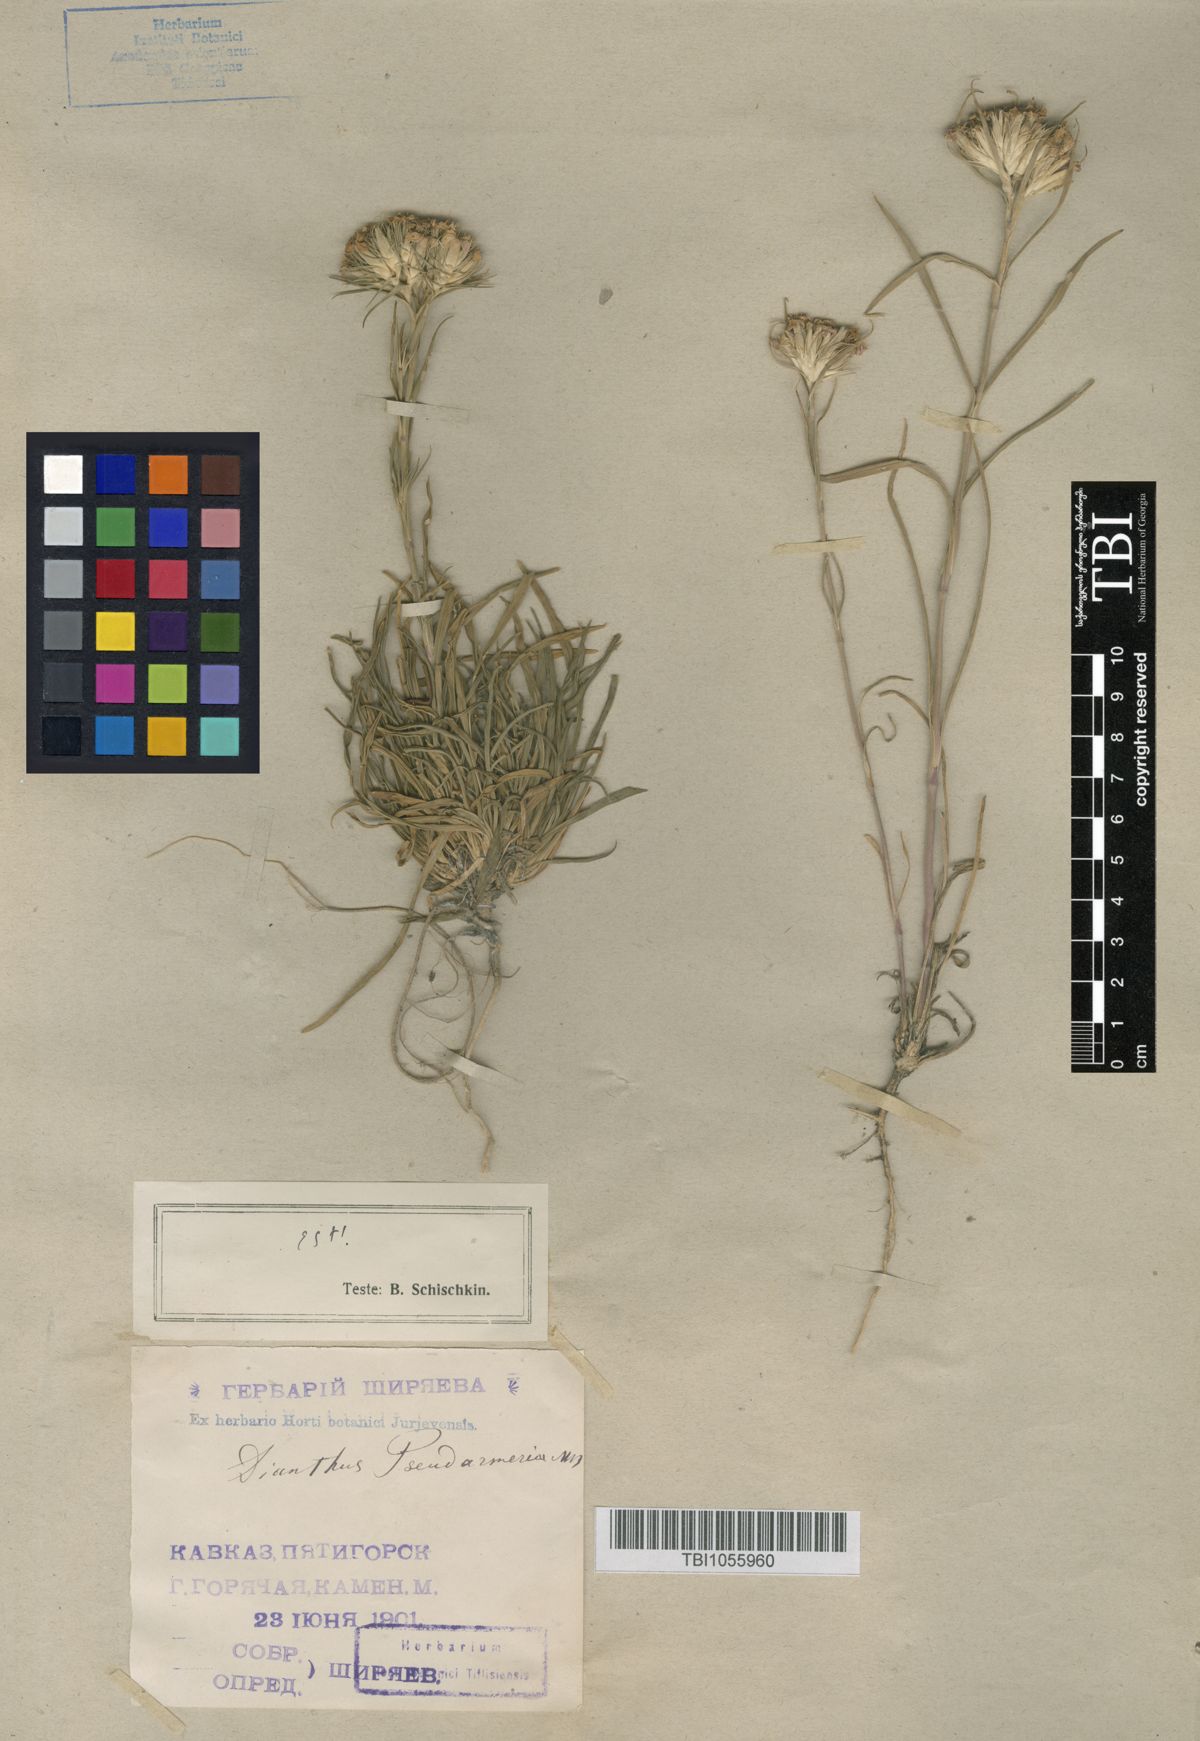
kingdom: Plantae
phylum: Tracheophyta
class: Magnoliopsida
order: Caryophyllales
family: Caryophyllaceae
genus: Dianthus
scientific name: Dianthus pseudarmeria
